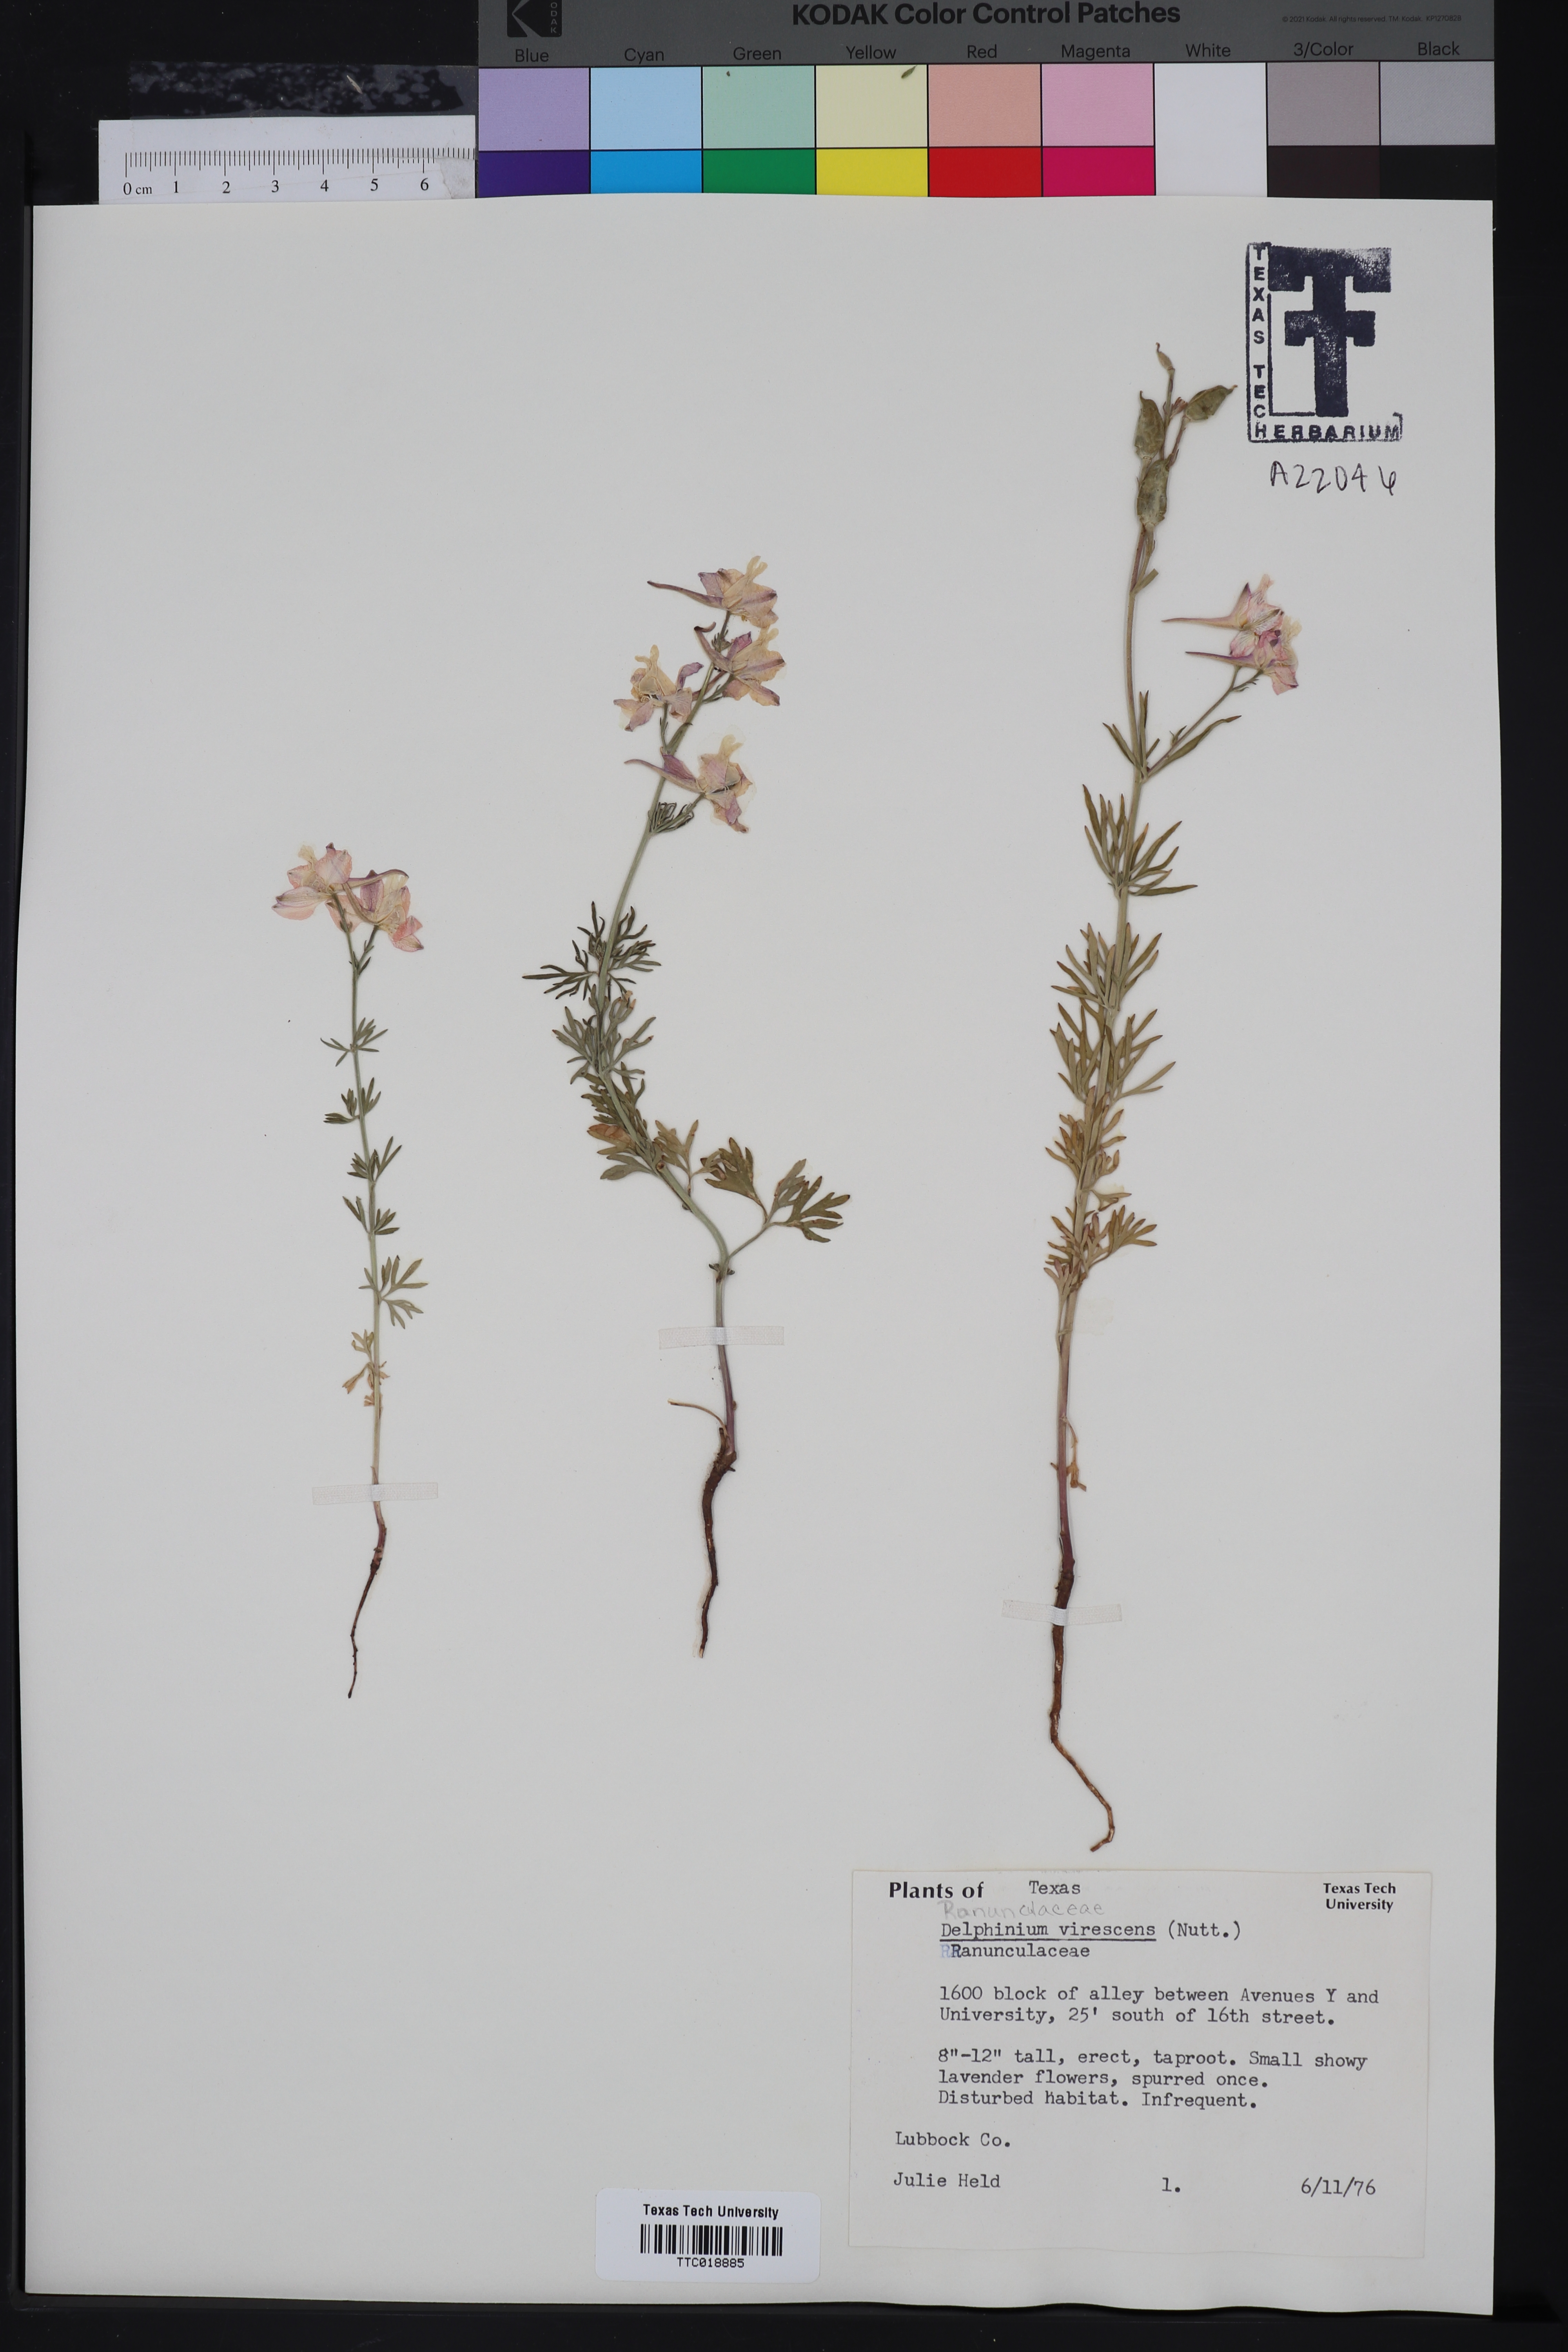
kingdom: Plantae
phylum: Tracheophyta
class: Magnoliopsida
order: Ranunculales
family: Ranunculaceae
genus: Delphinium
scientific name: Delphinium carolinianum
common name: Carolina larkspur
